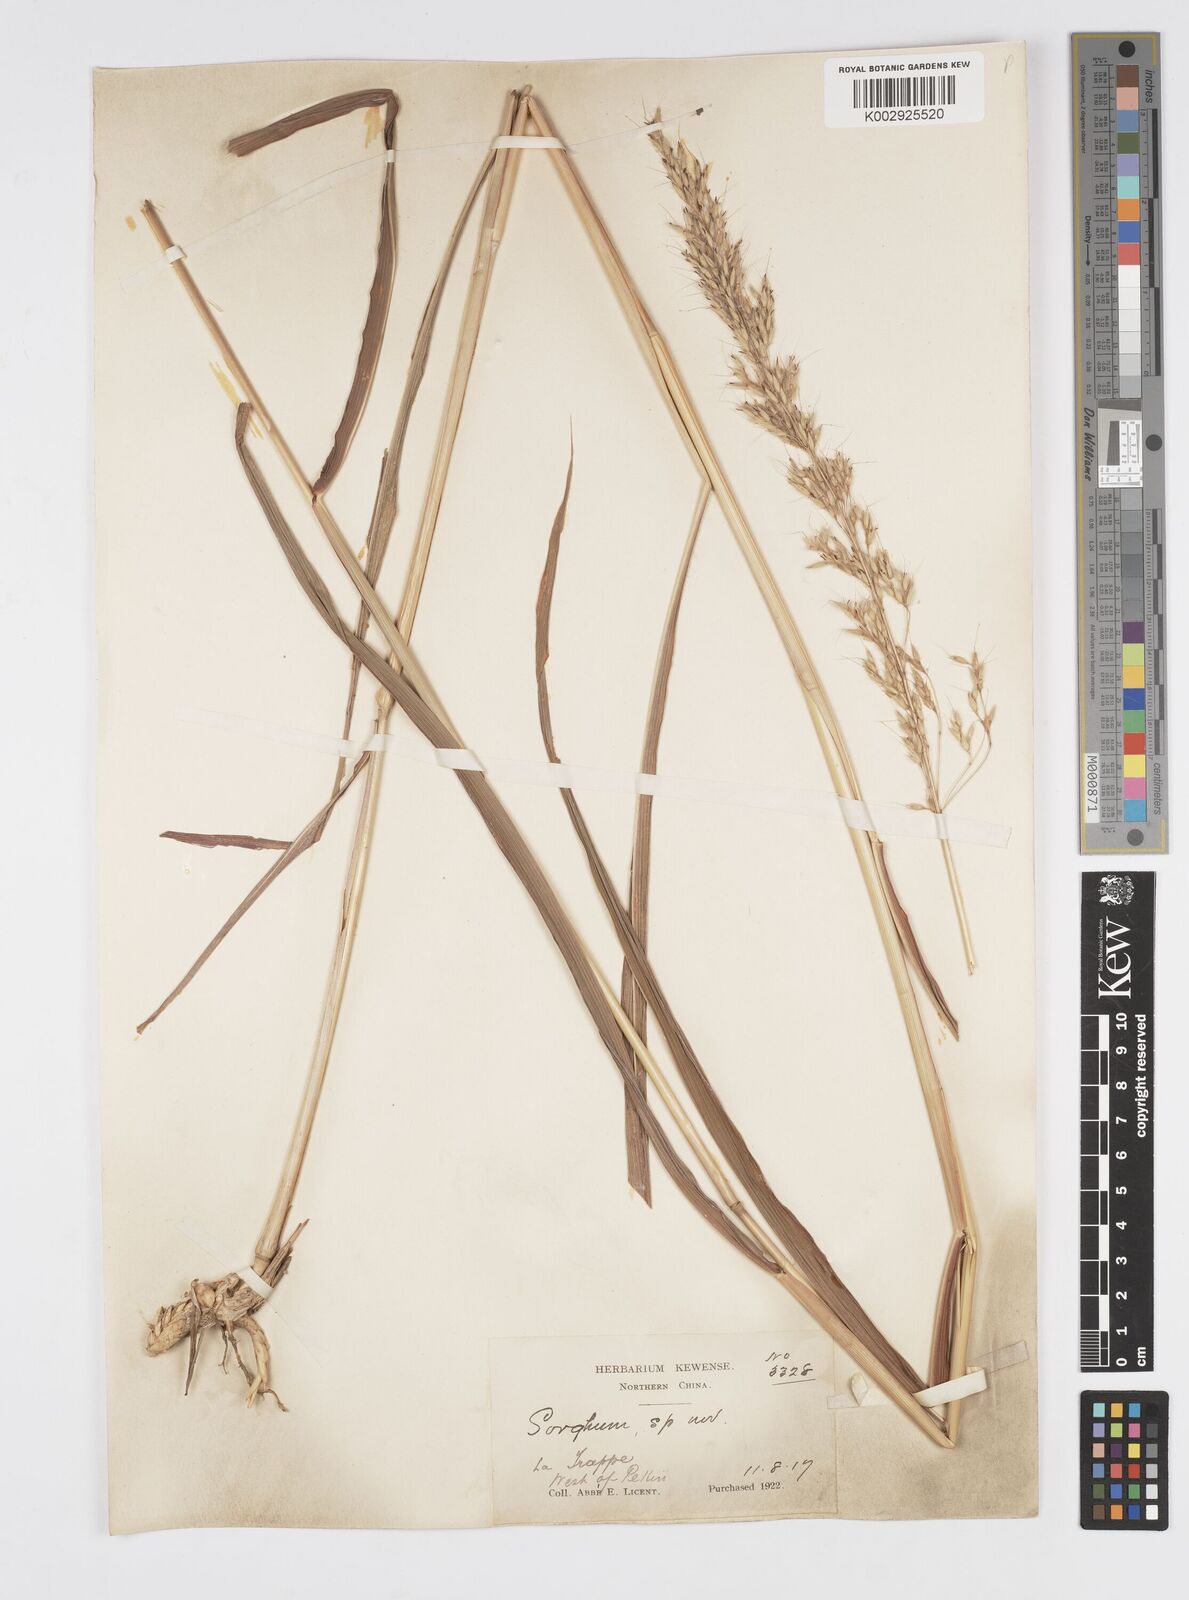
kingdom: Plantae
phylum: Tracheophyta
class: Liliopsida
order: Poales
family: Poaceae
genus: Spodiopogon
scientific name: Spodiopogon sibiricus
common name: Siberian graybeard
